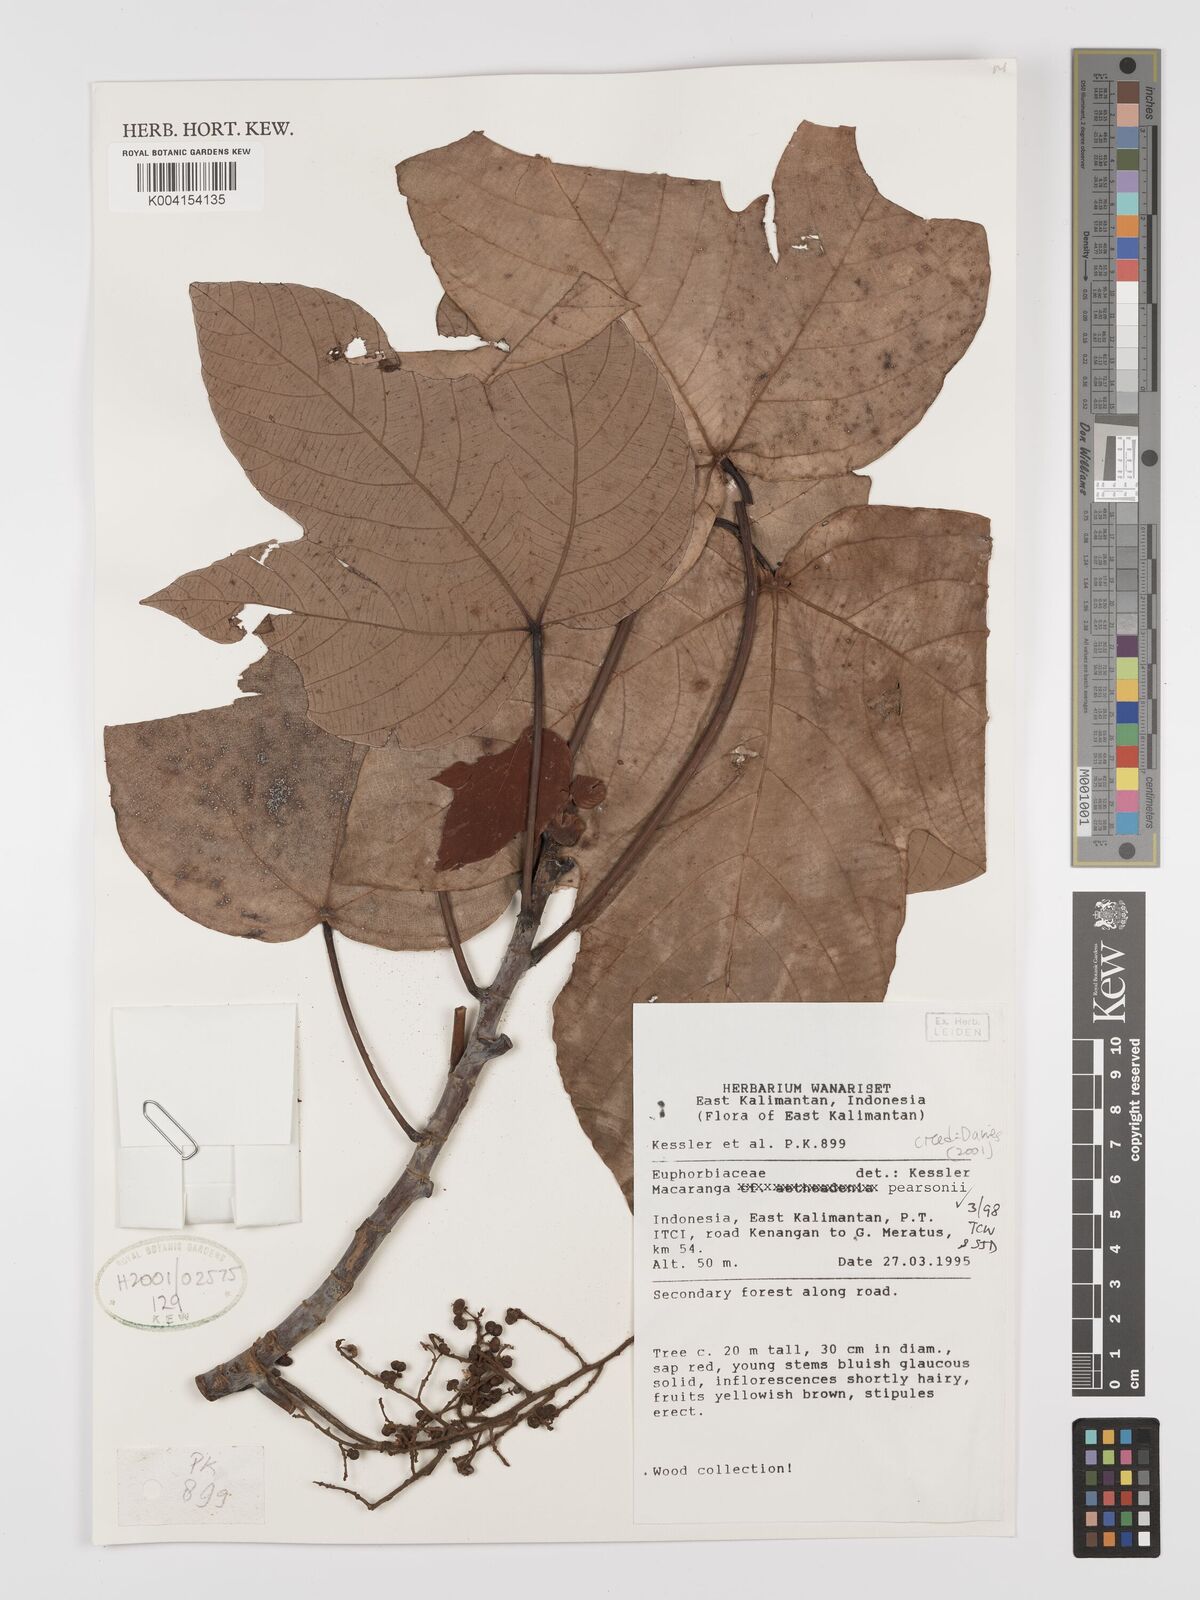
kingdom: Plantae
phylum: Tracheophyta
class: Magnoliopsida
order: Malpighiales
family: Euphorbiaceae
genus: Macaranga
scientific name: Macaranga pearsonii
